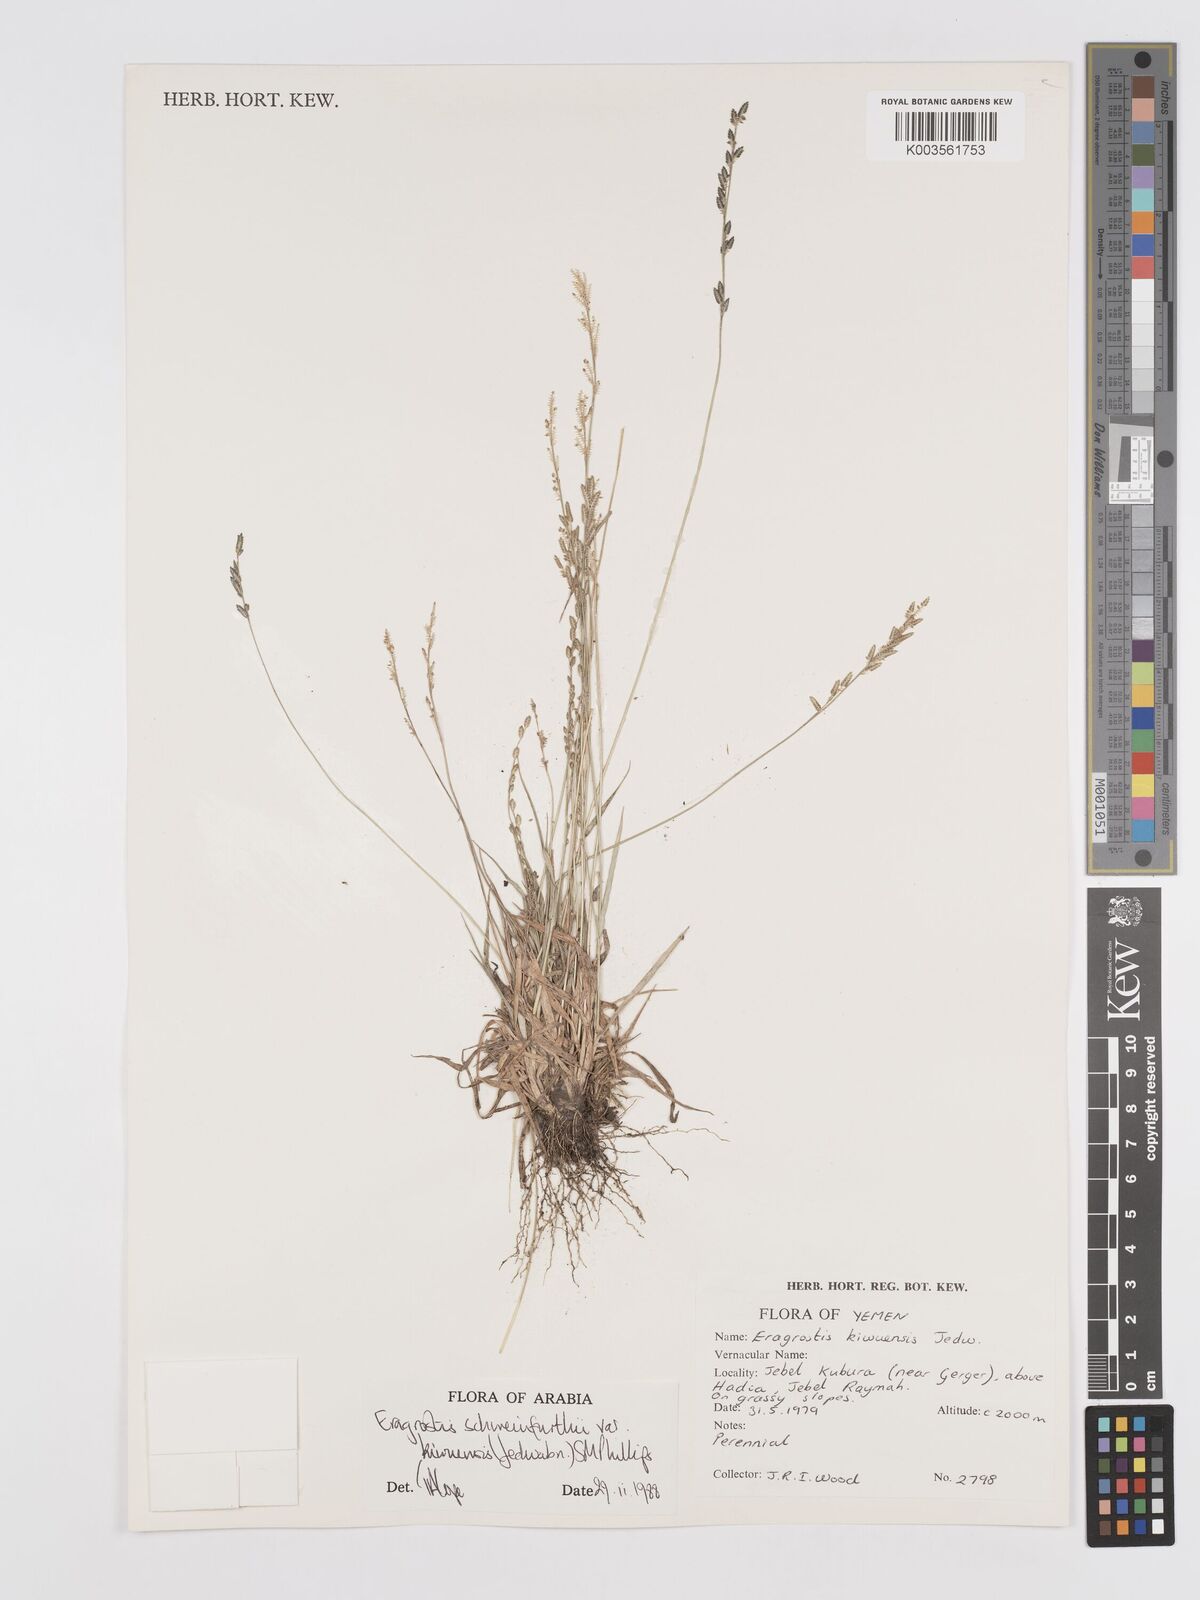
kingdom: Plantae
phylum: Tracheophyta
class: Liliopsida
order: Poales
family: Poaceae
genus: Eragrostis
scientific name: Eragrostis schweinfurthii
